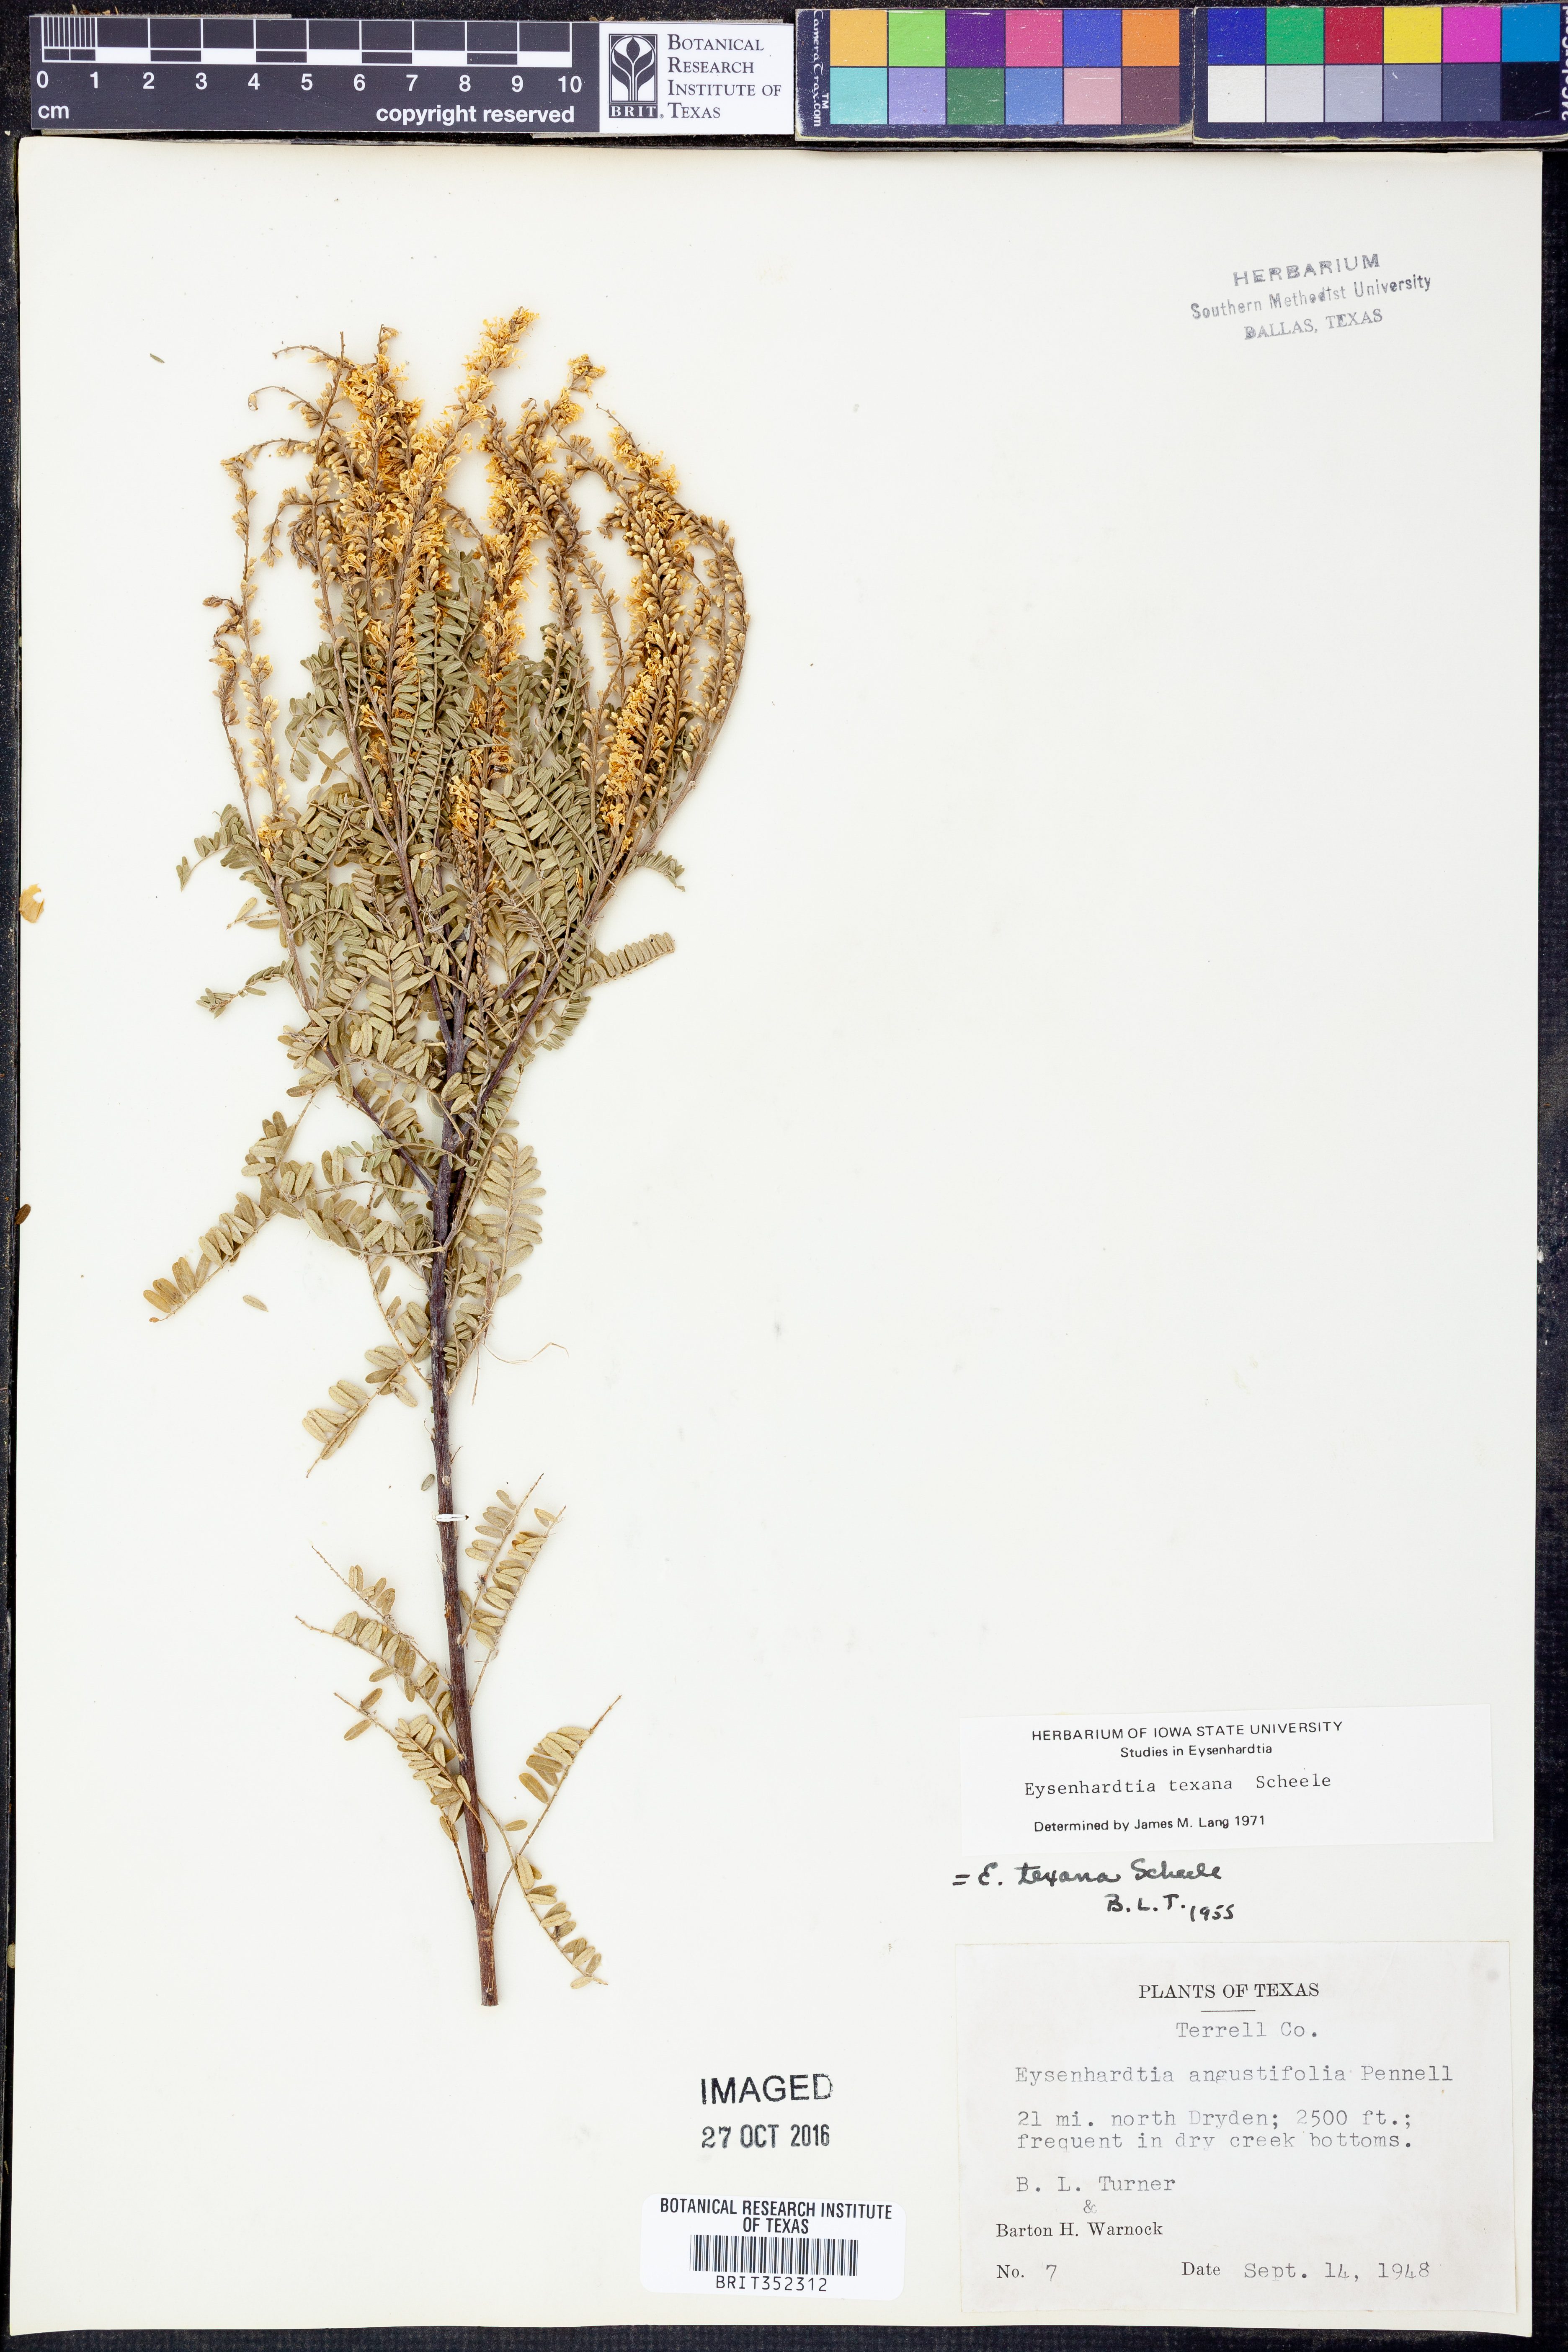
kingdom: Plantae
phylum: Tracheophyta
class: Magnoliopsida
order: Fabales
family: Fabaceae
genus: Eysenhardtia
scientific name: Eysenhardtia texana
